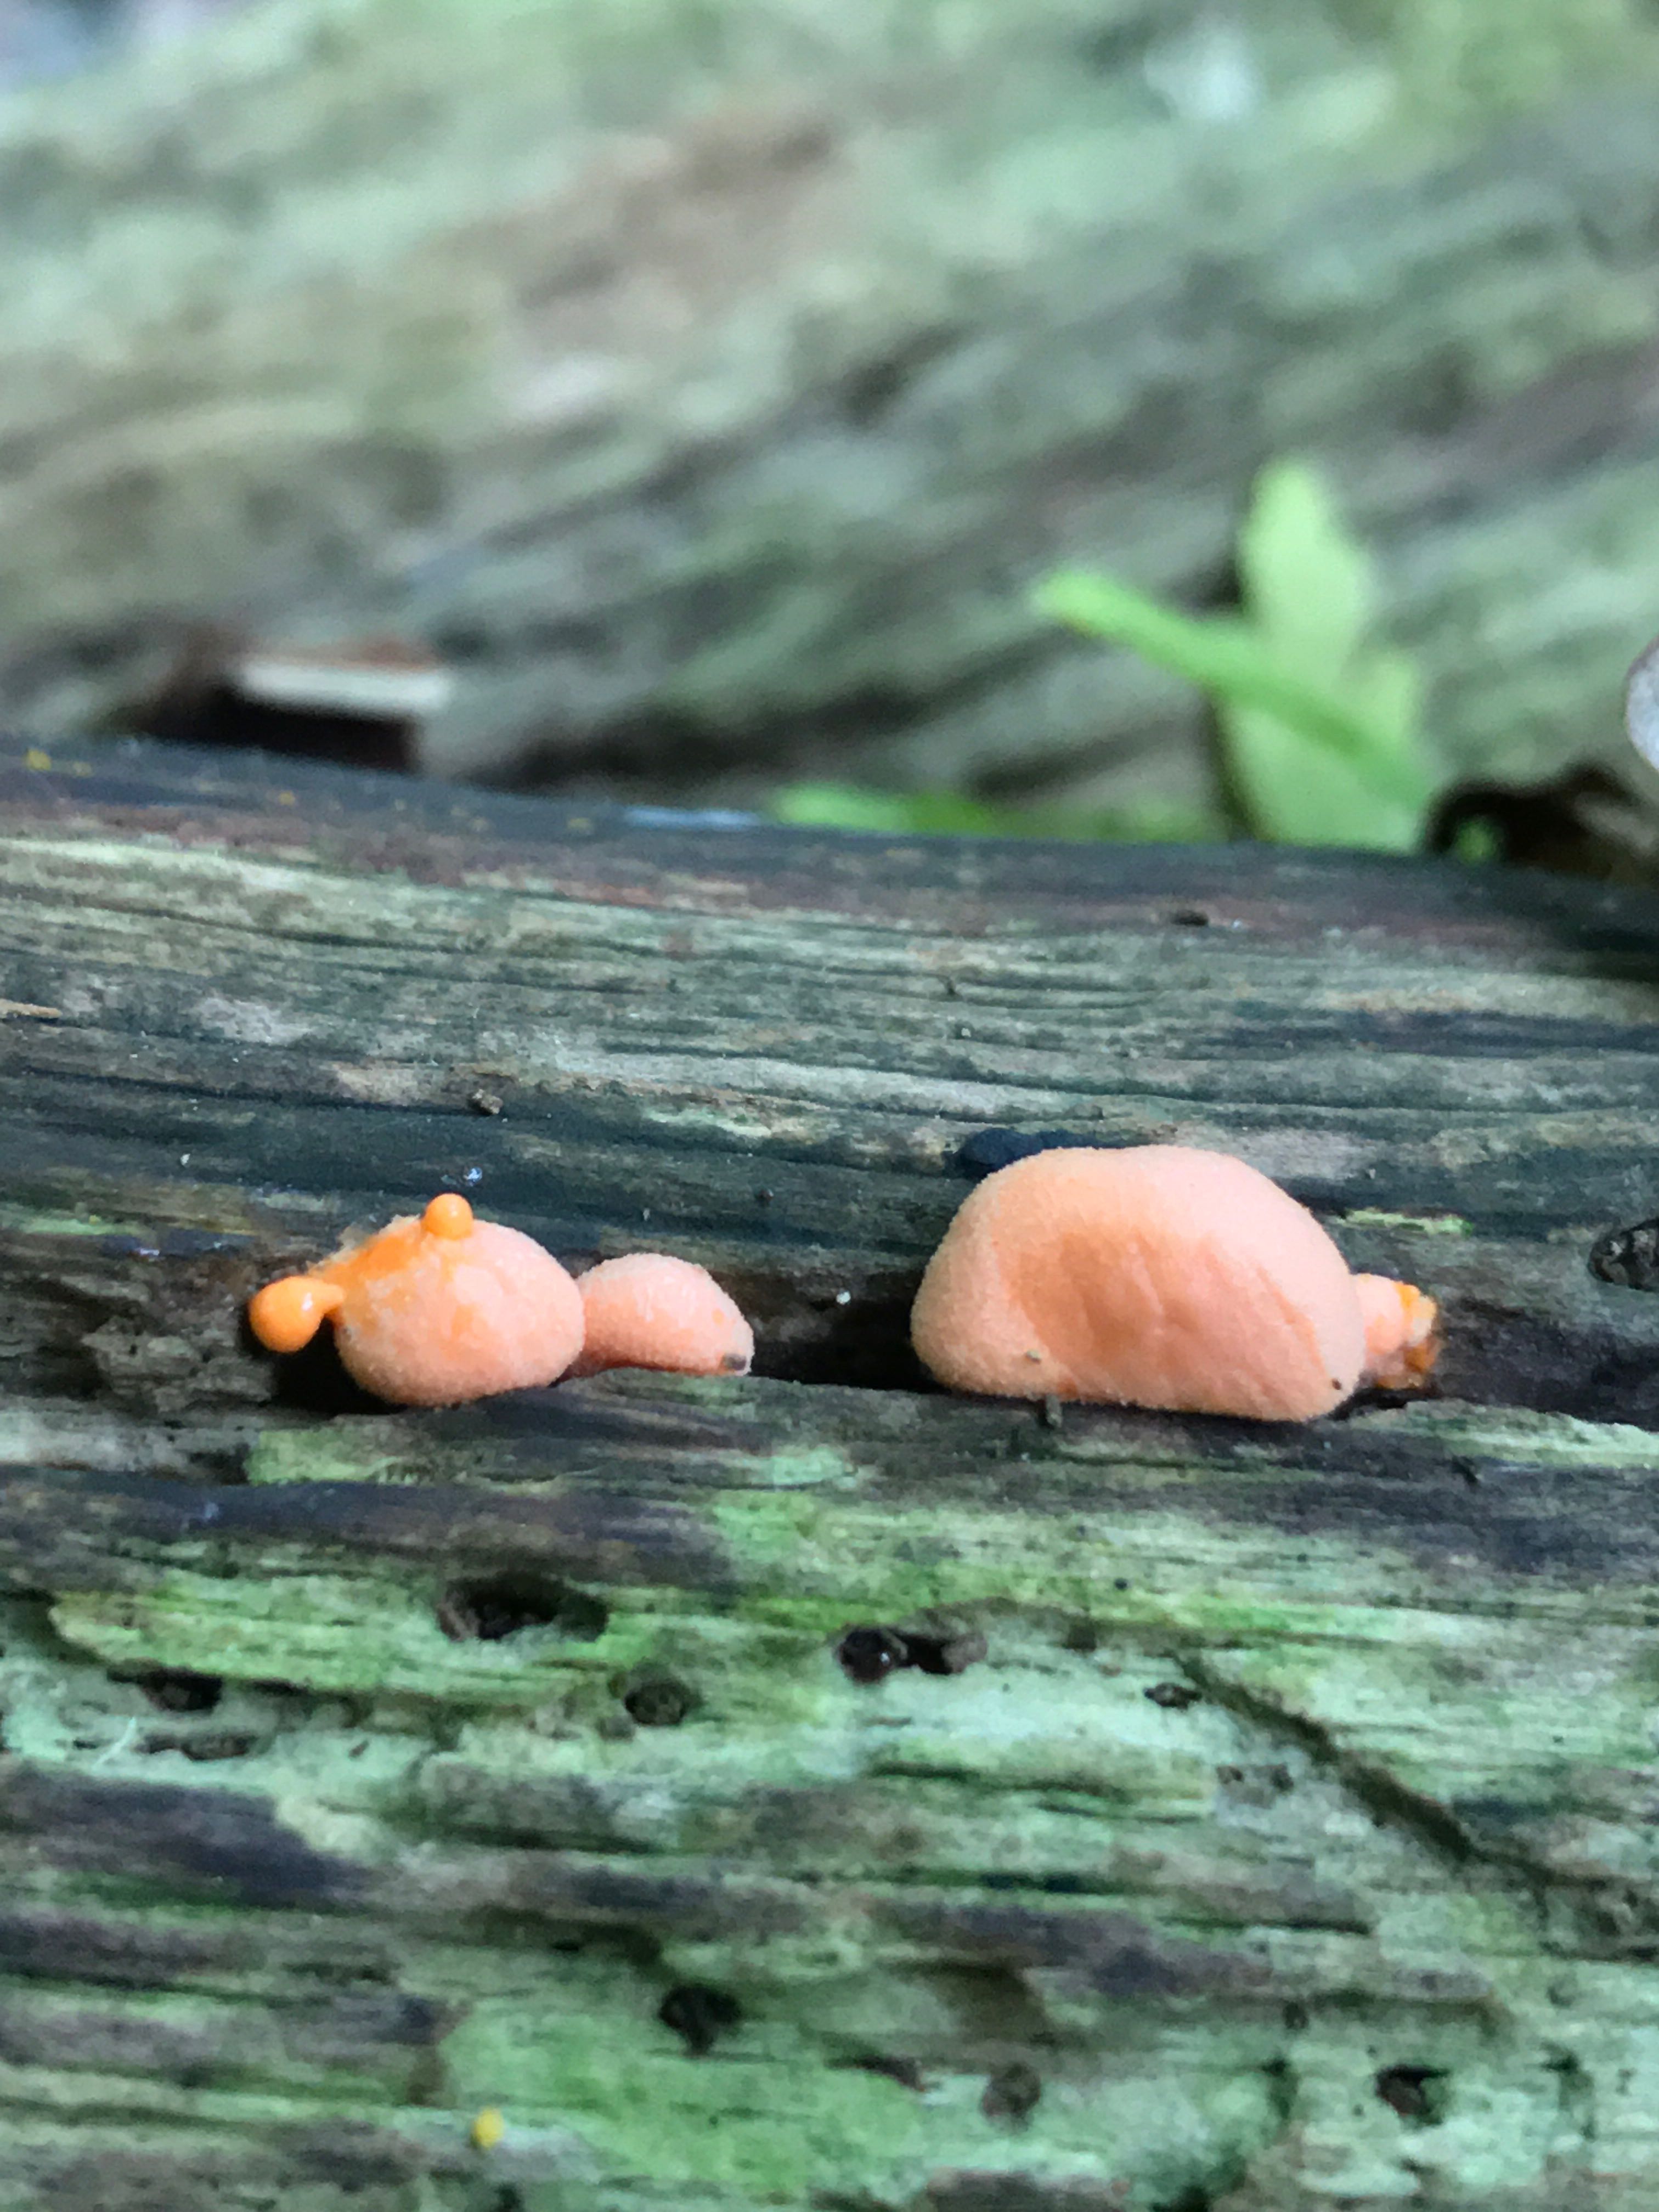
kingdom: Protozoa
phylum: Mycetozoa
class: Myxomycetes
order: Cribrariales
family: Tubiferaceae
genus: Lycogala
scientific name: Lycogala epidendrum
